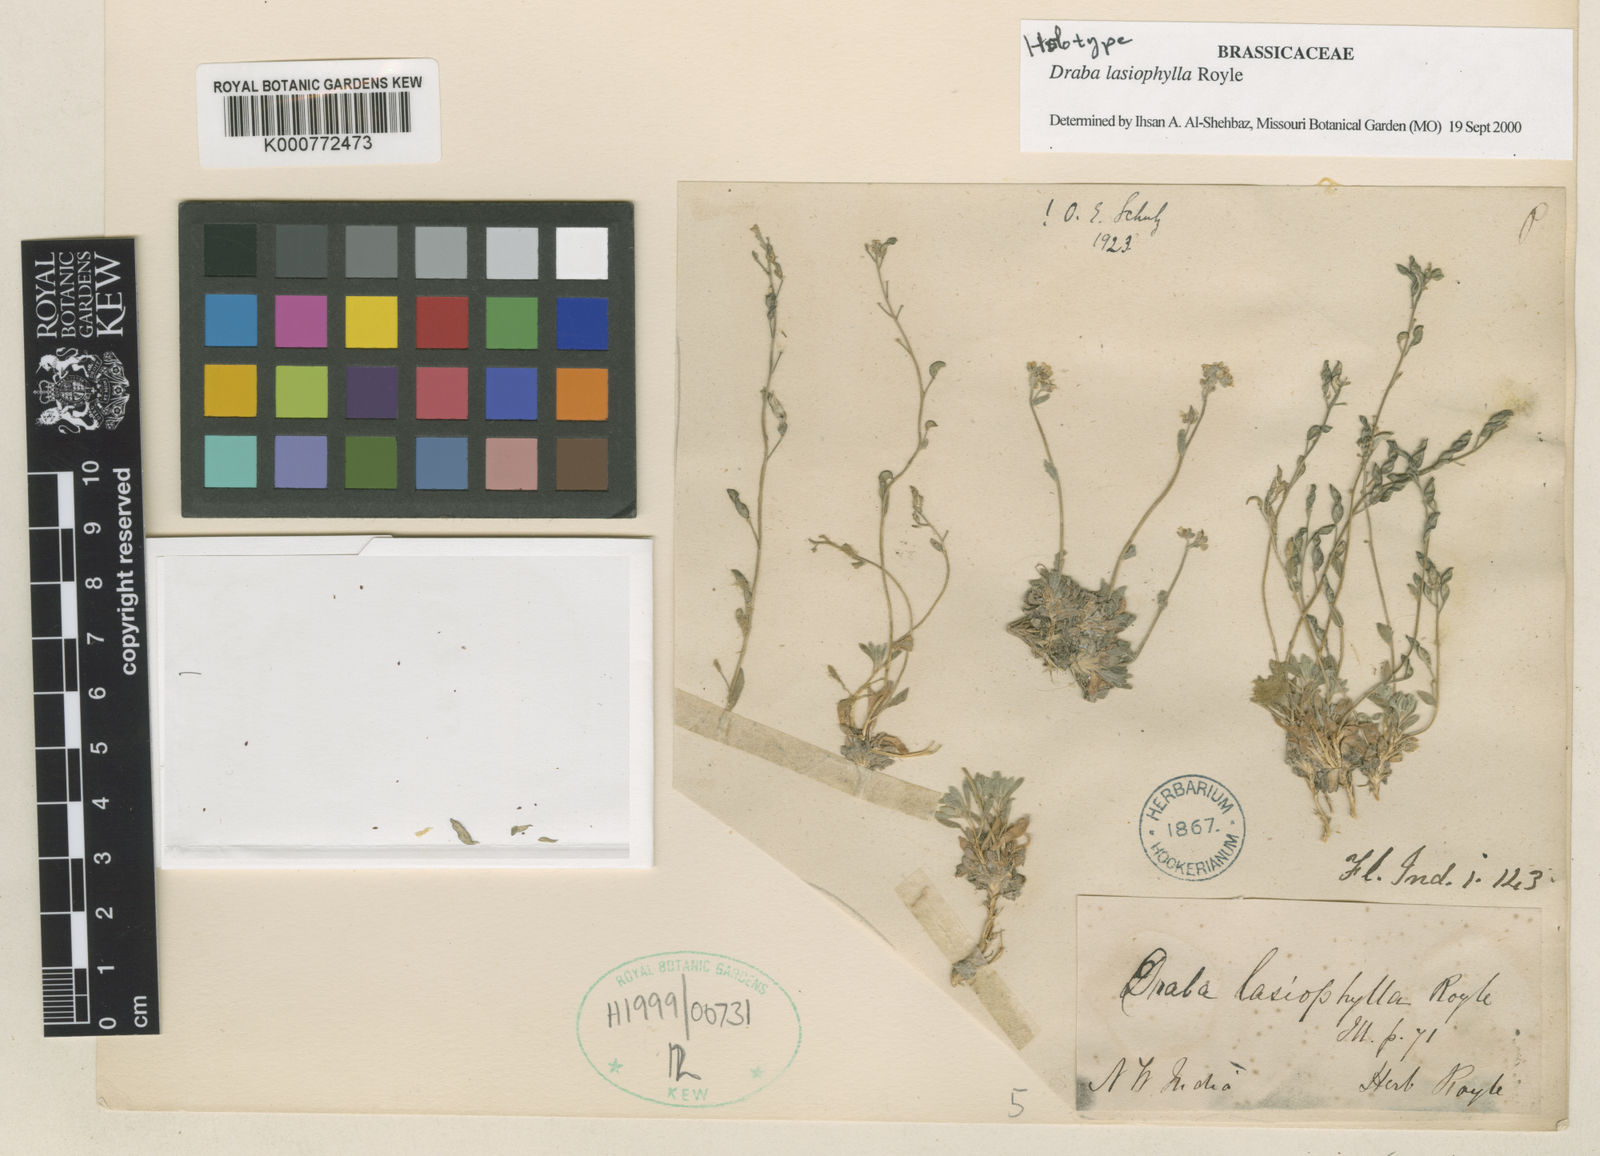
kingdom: Plantae
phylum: Tracheophyta
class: Magnoliopsida
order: Brassicales
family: Brassicaceae
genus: Draba
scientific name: Draba lasiophylla
